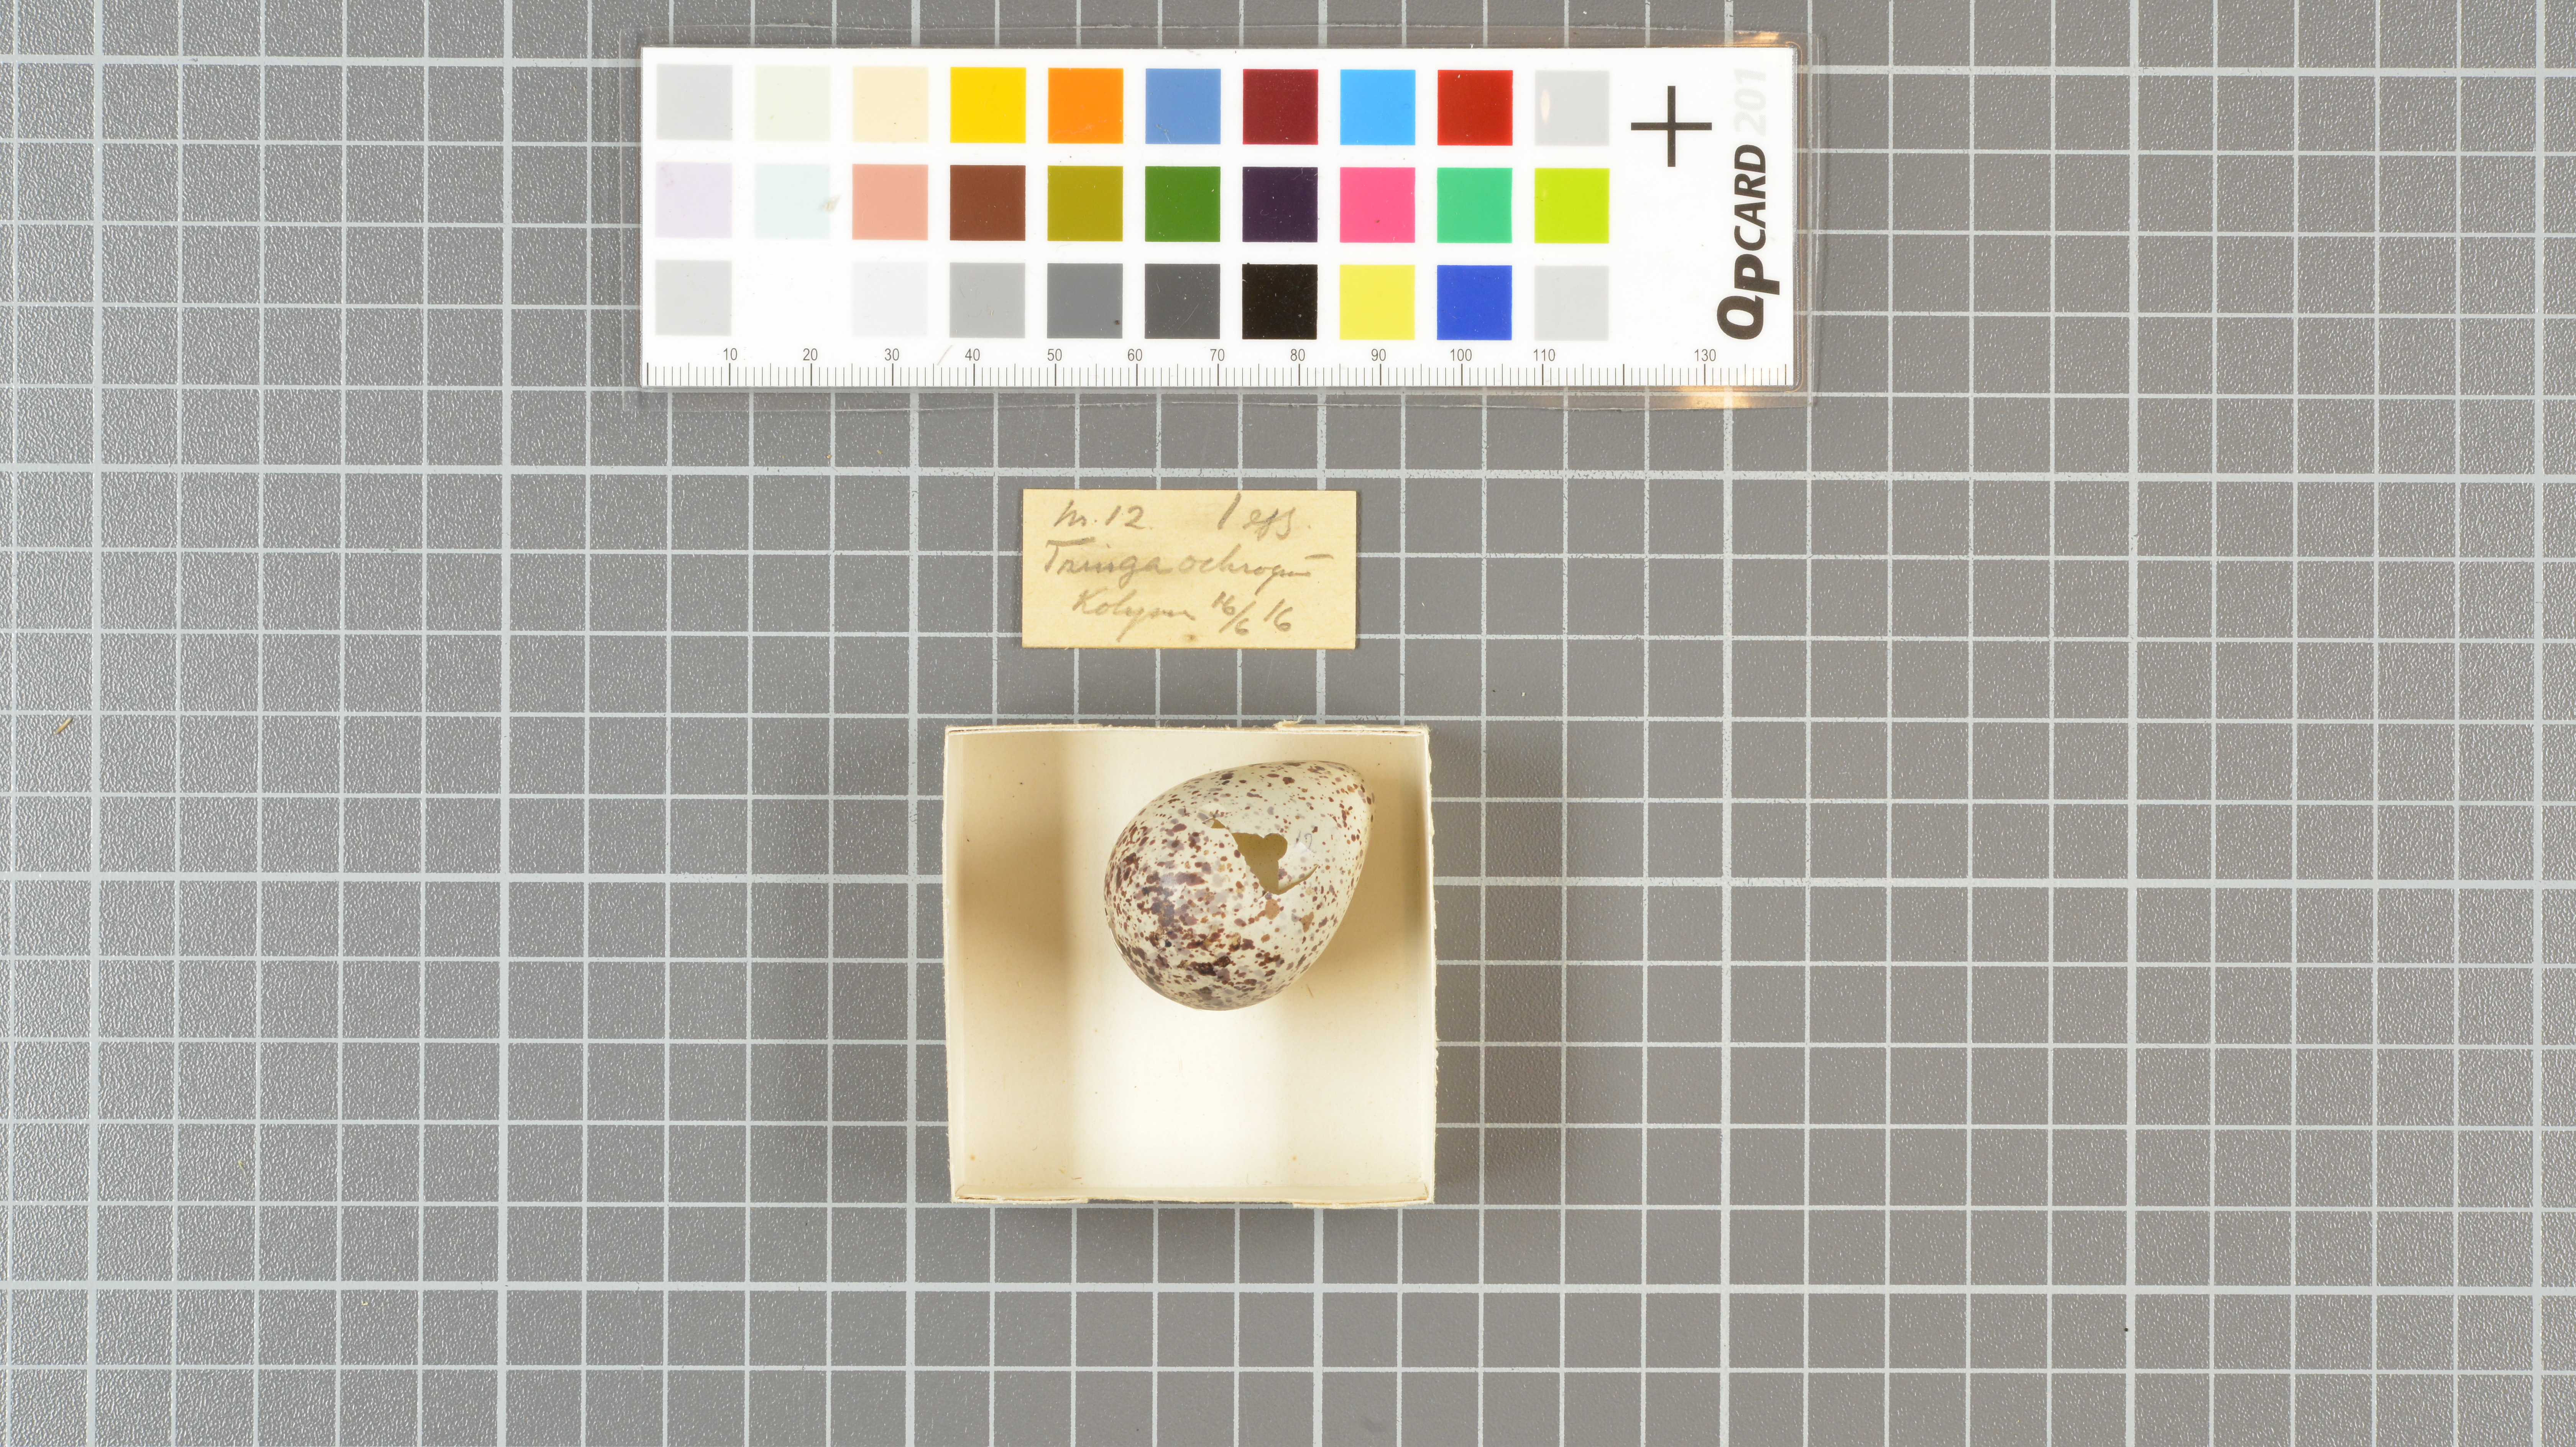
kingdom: Animalia
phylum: Chordata
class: Aves
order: Charadriiformes
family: Scolopacidae
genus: Tringa
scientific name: Tringa ochropus
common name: Green sandpiper
